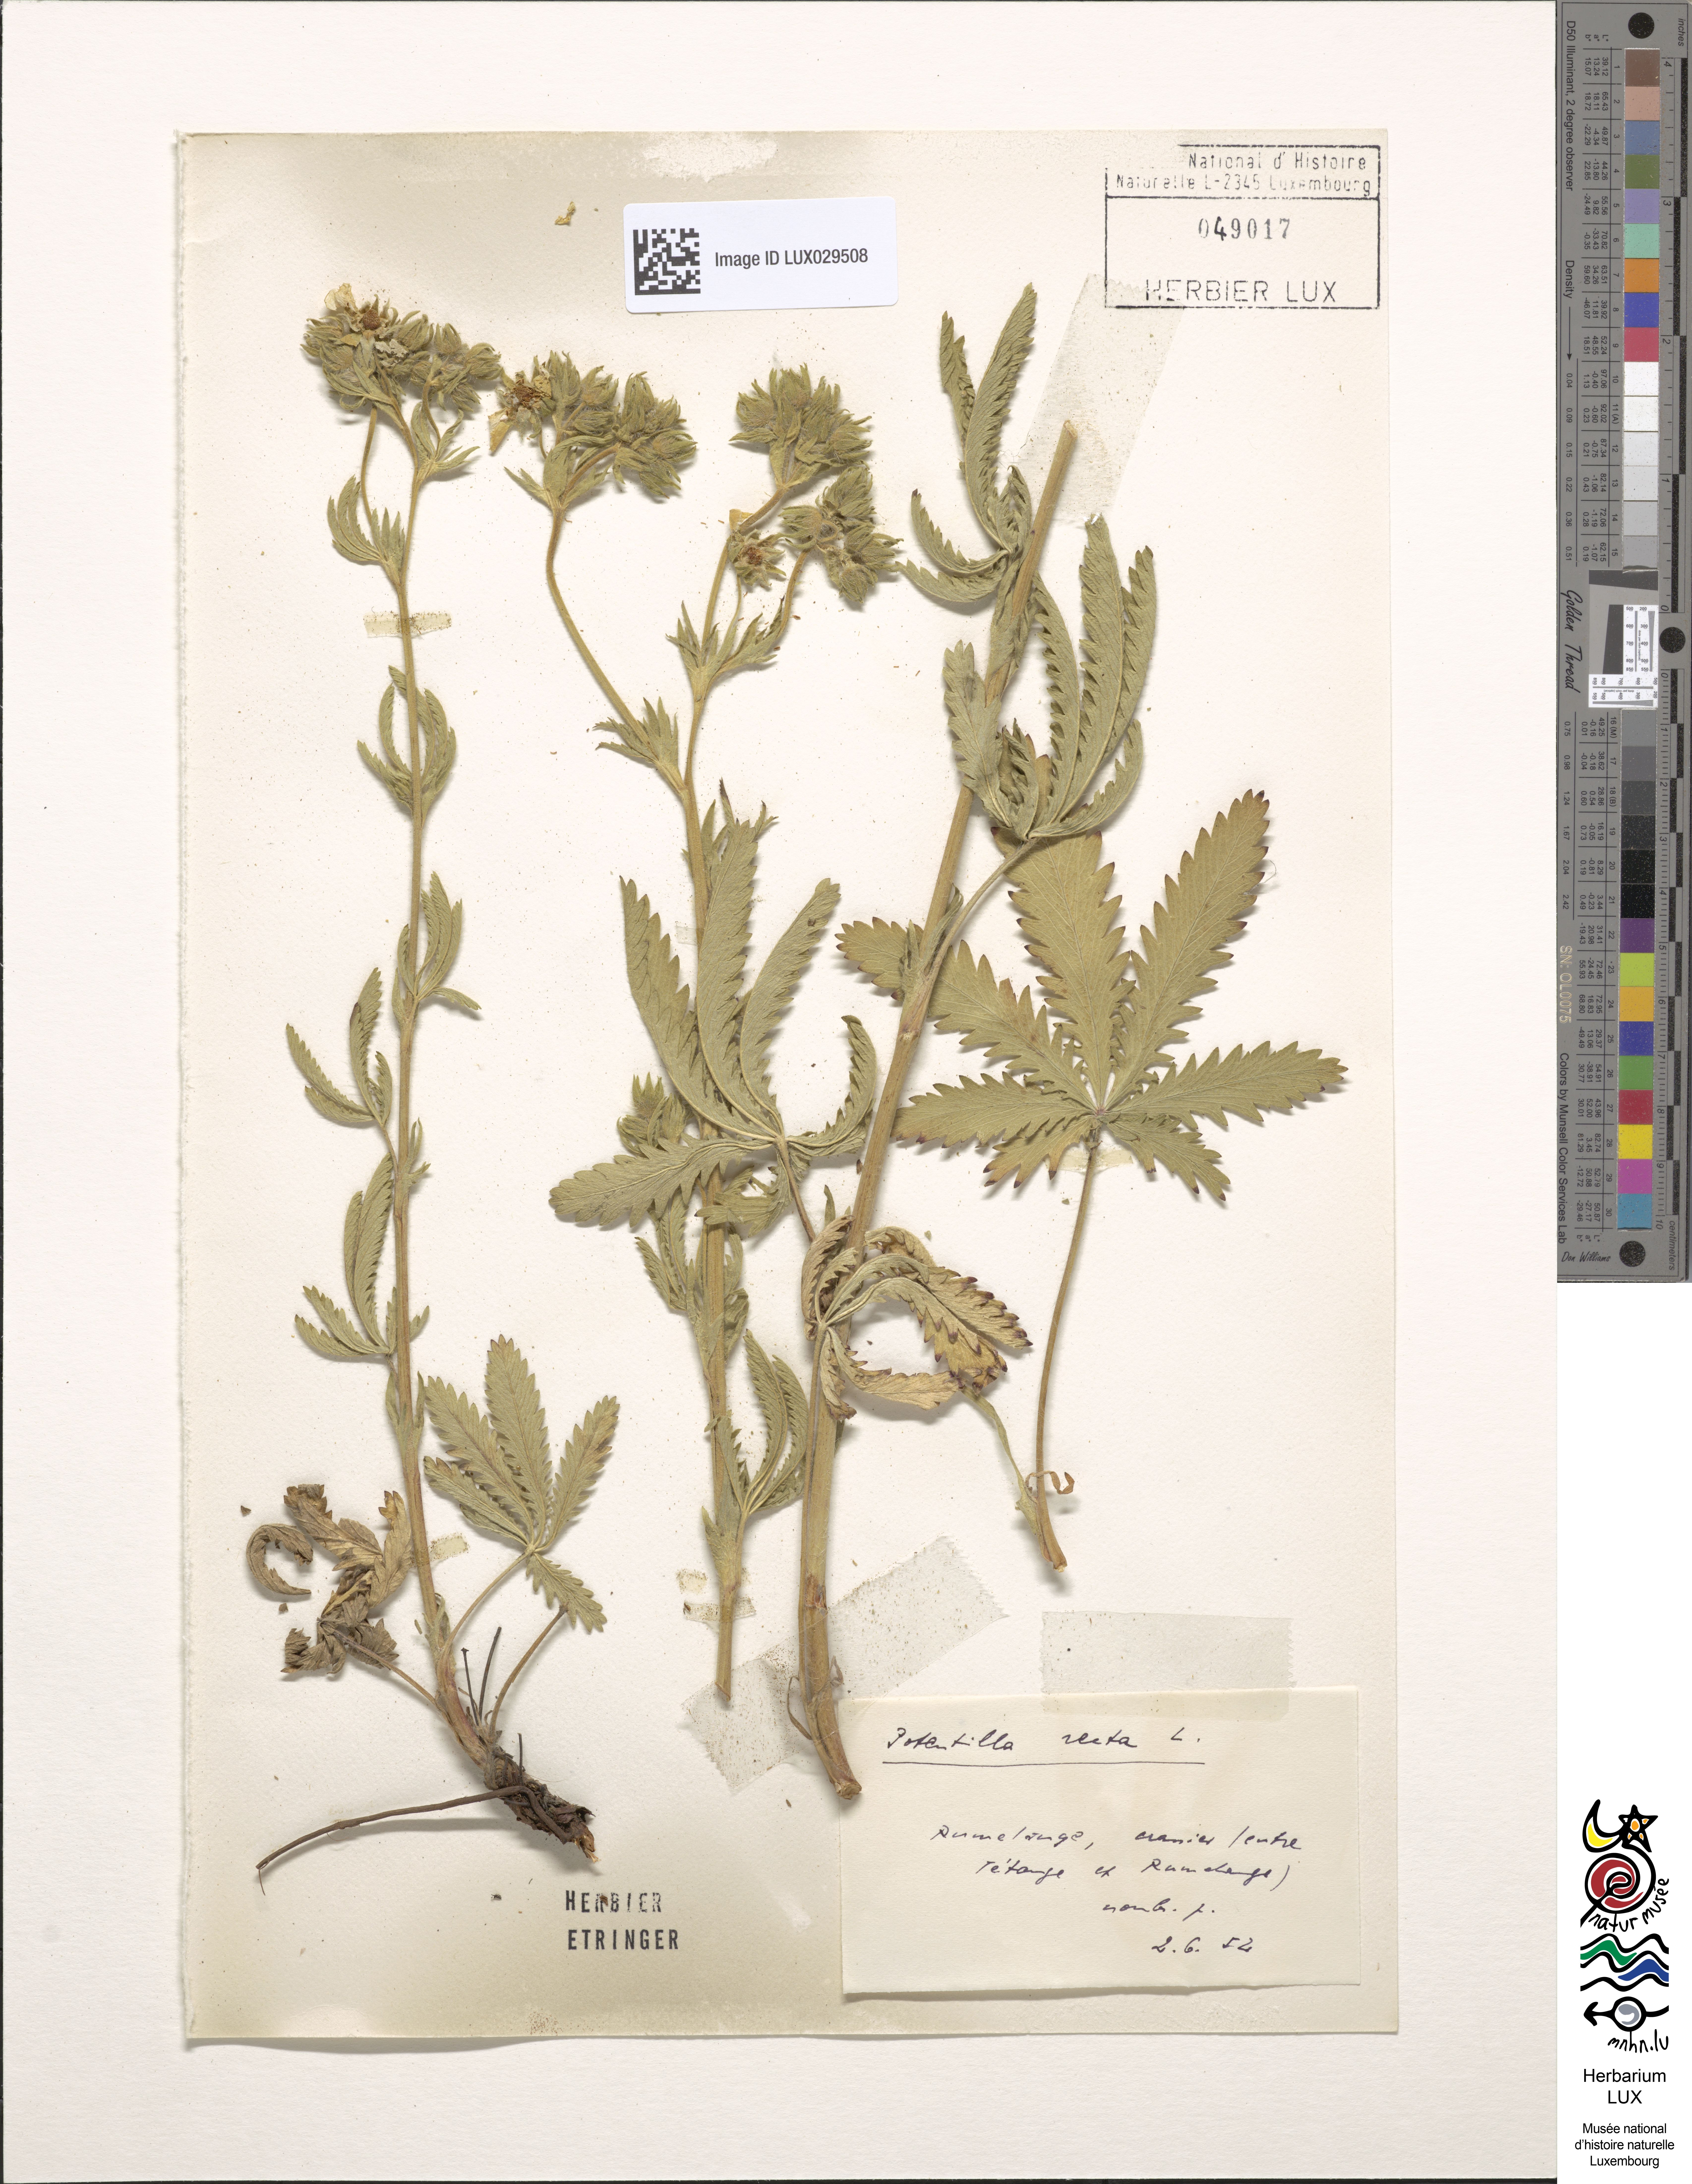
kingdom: Plantae
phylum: Tracheophyta
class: Magnoliopsida
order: Rosales
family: Rosaceae
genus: Potentilla
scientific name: Potentilla recta
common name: Sulphur cinquefoil
